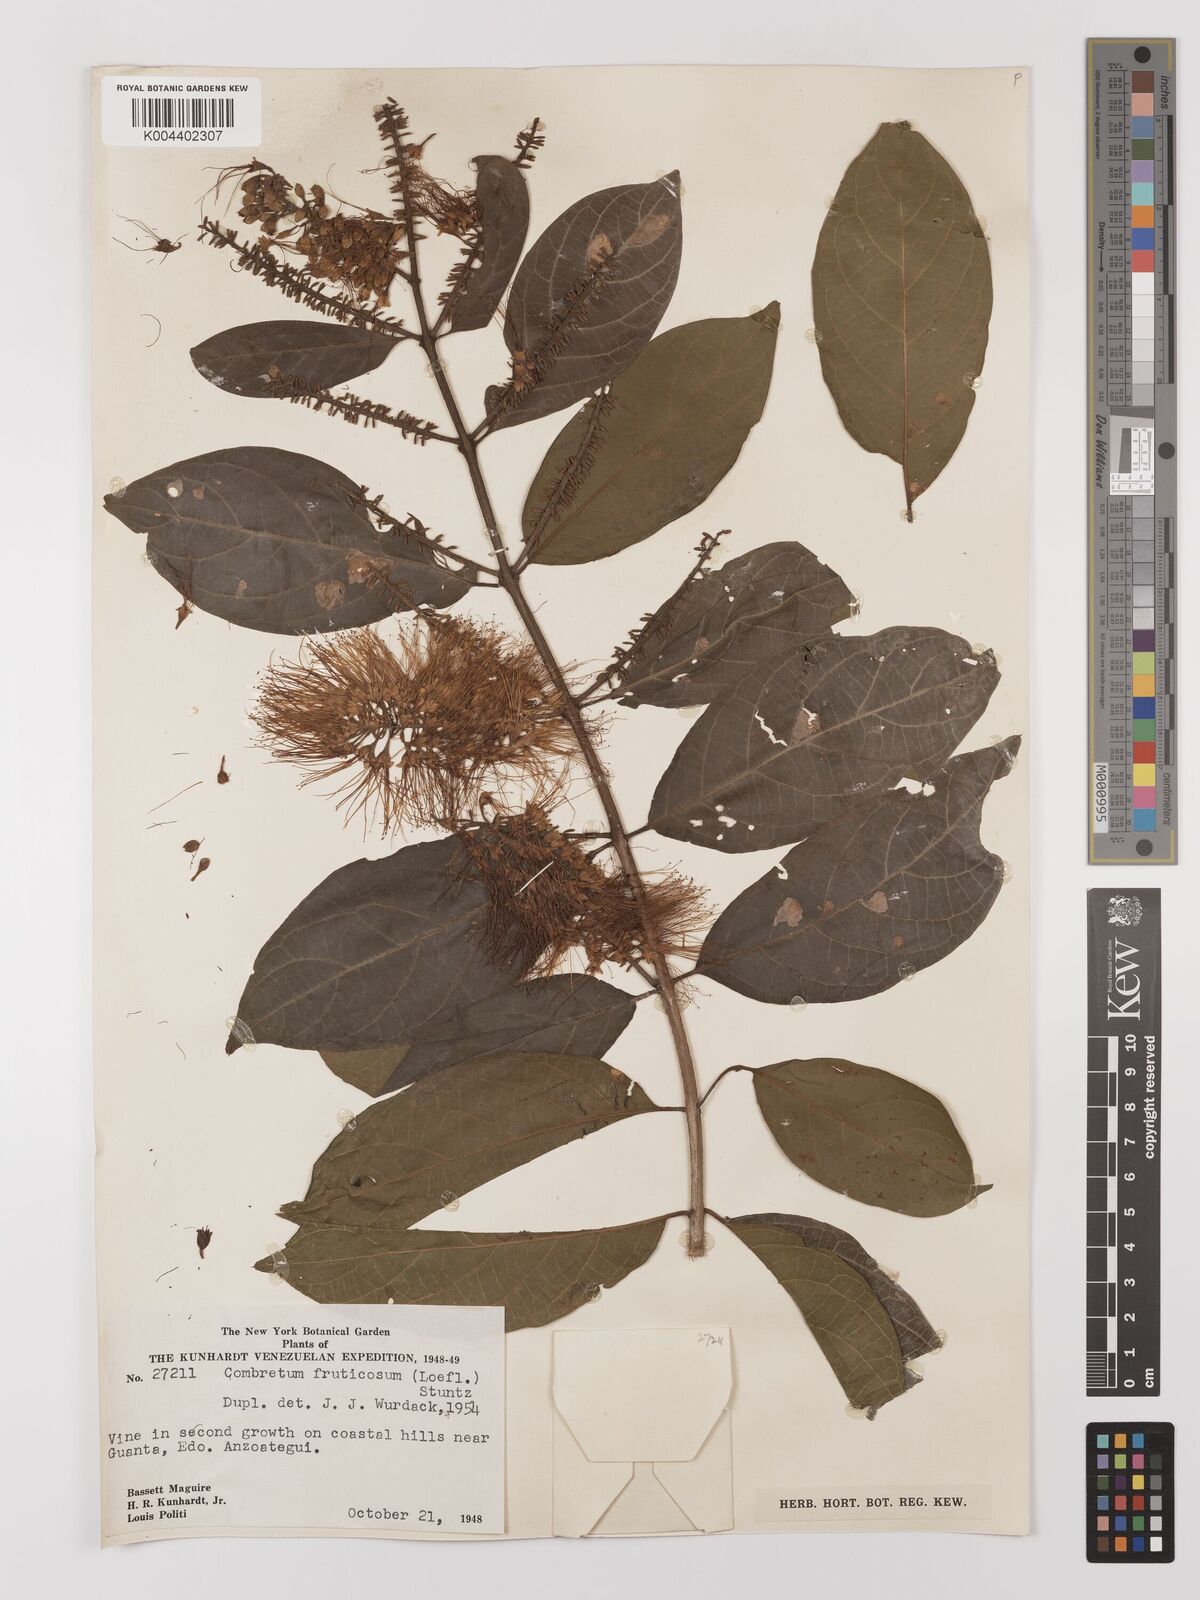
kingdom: Plantae
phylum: Tracheophyta
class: Magnoliopsida
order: Myrtales
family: Combretaceae
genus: Combretum
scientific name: Combretum fruticosum
